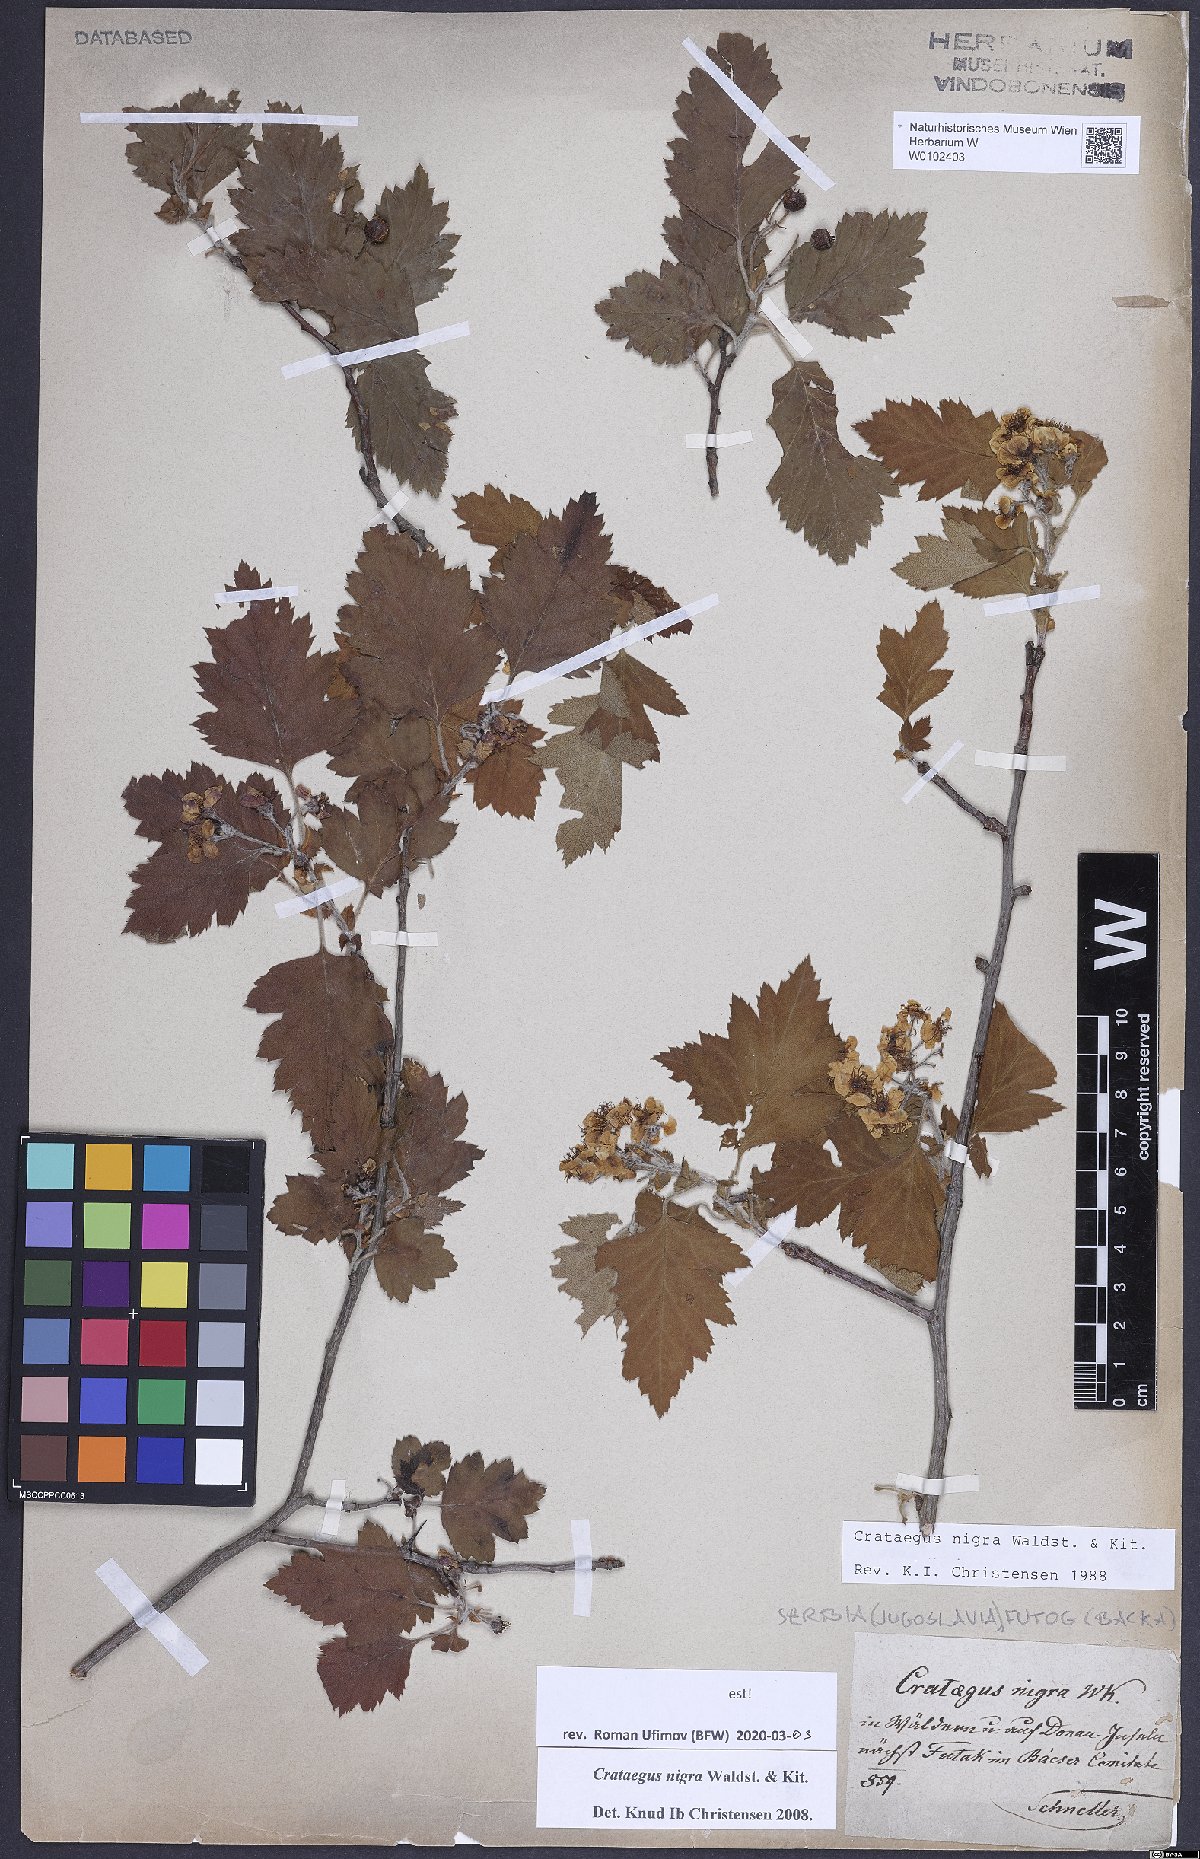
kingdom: Plantae
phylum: Tracheophyta
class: Magnoliopsida
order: Rosales
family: Rosaceae
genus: Crataegus
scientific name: Crataegus nigra
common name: Hungarian thorn
